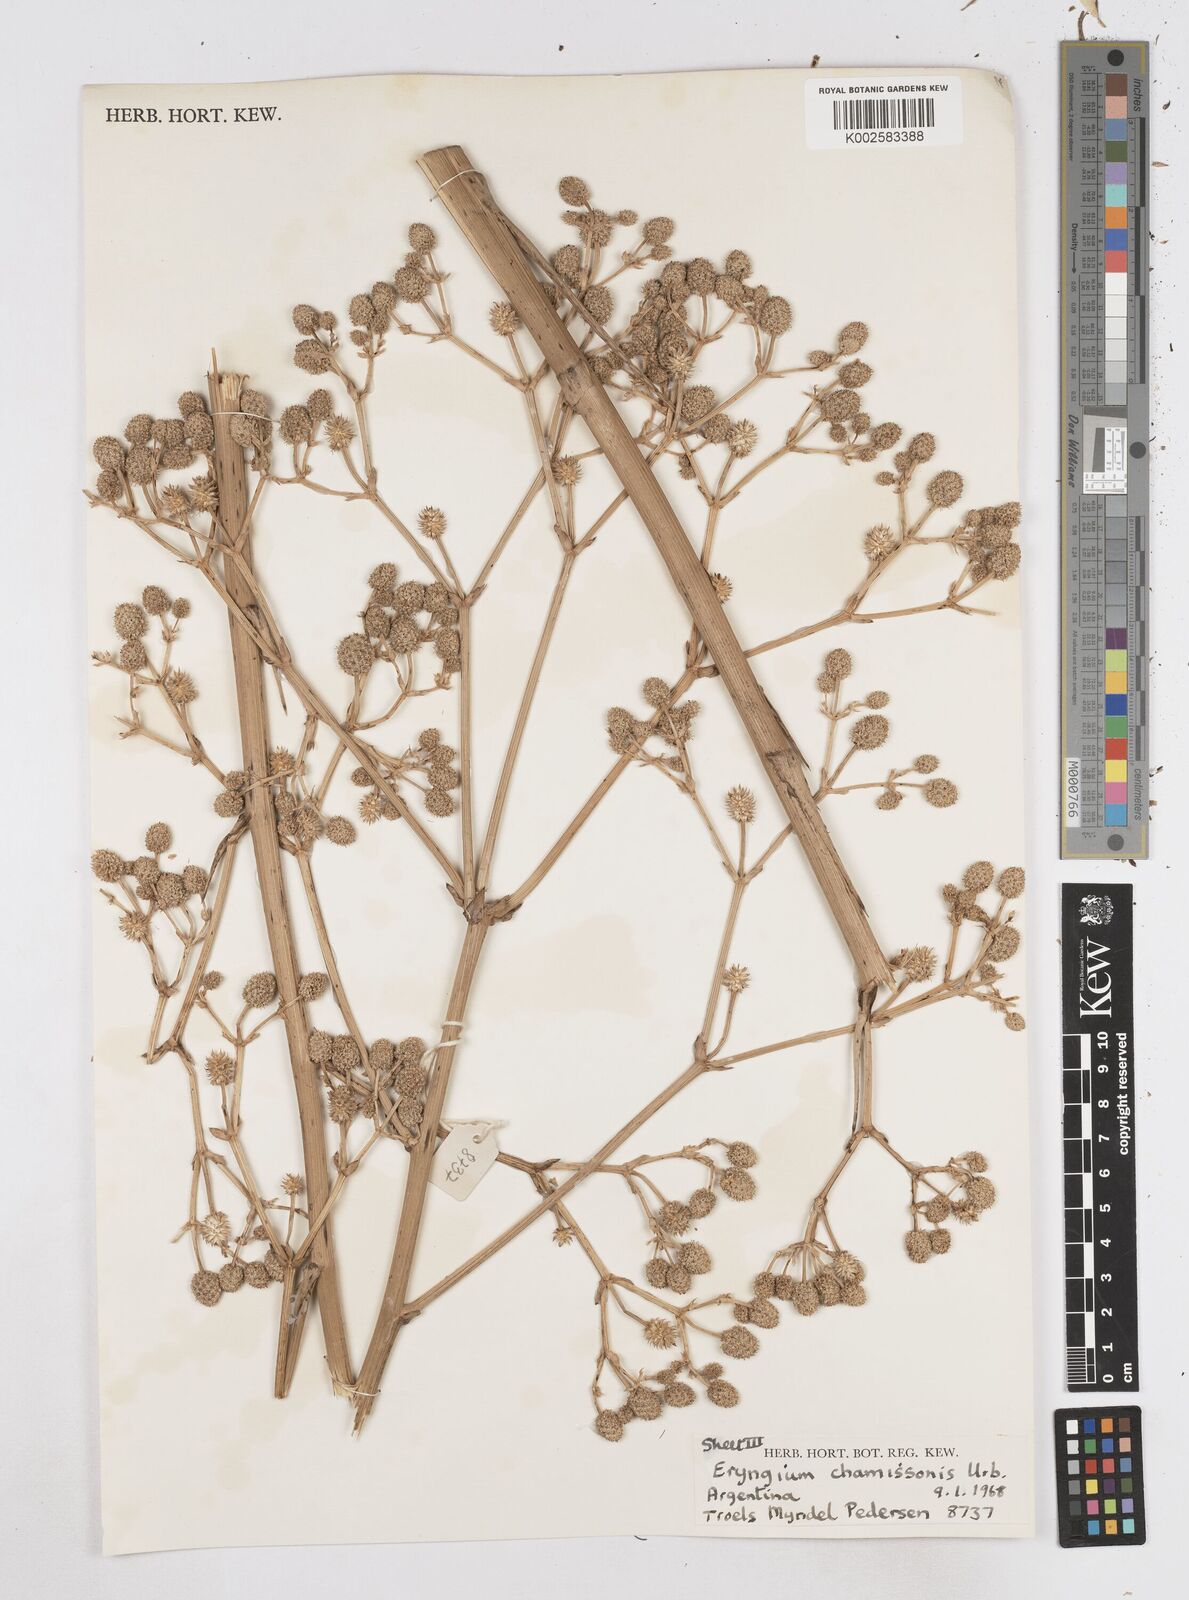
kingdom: Plantae
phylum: Tracheophyta
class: Magnoliopsida
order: Apiales
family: Apiaceae
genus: Eryngium
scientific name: Eryngium chamissonis
